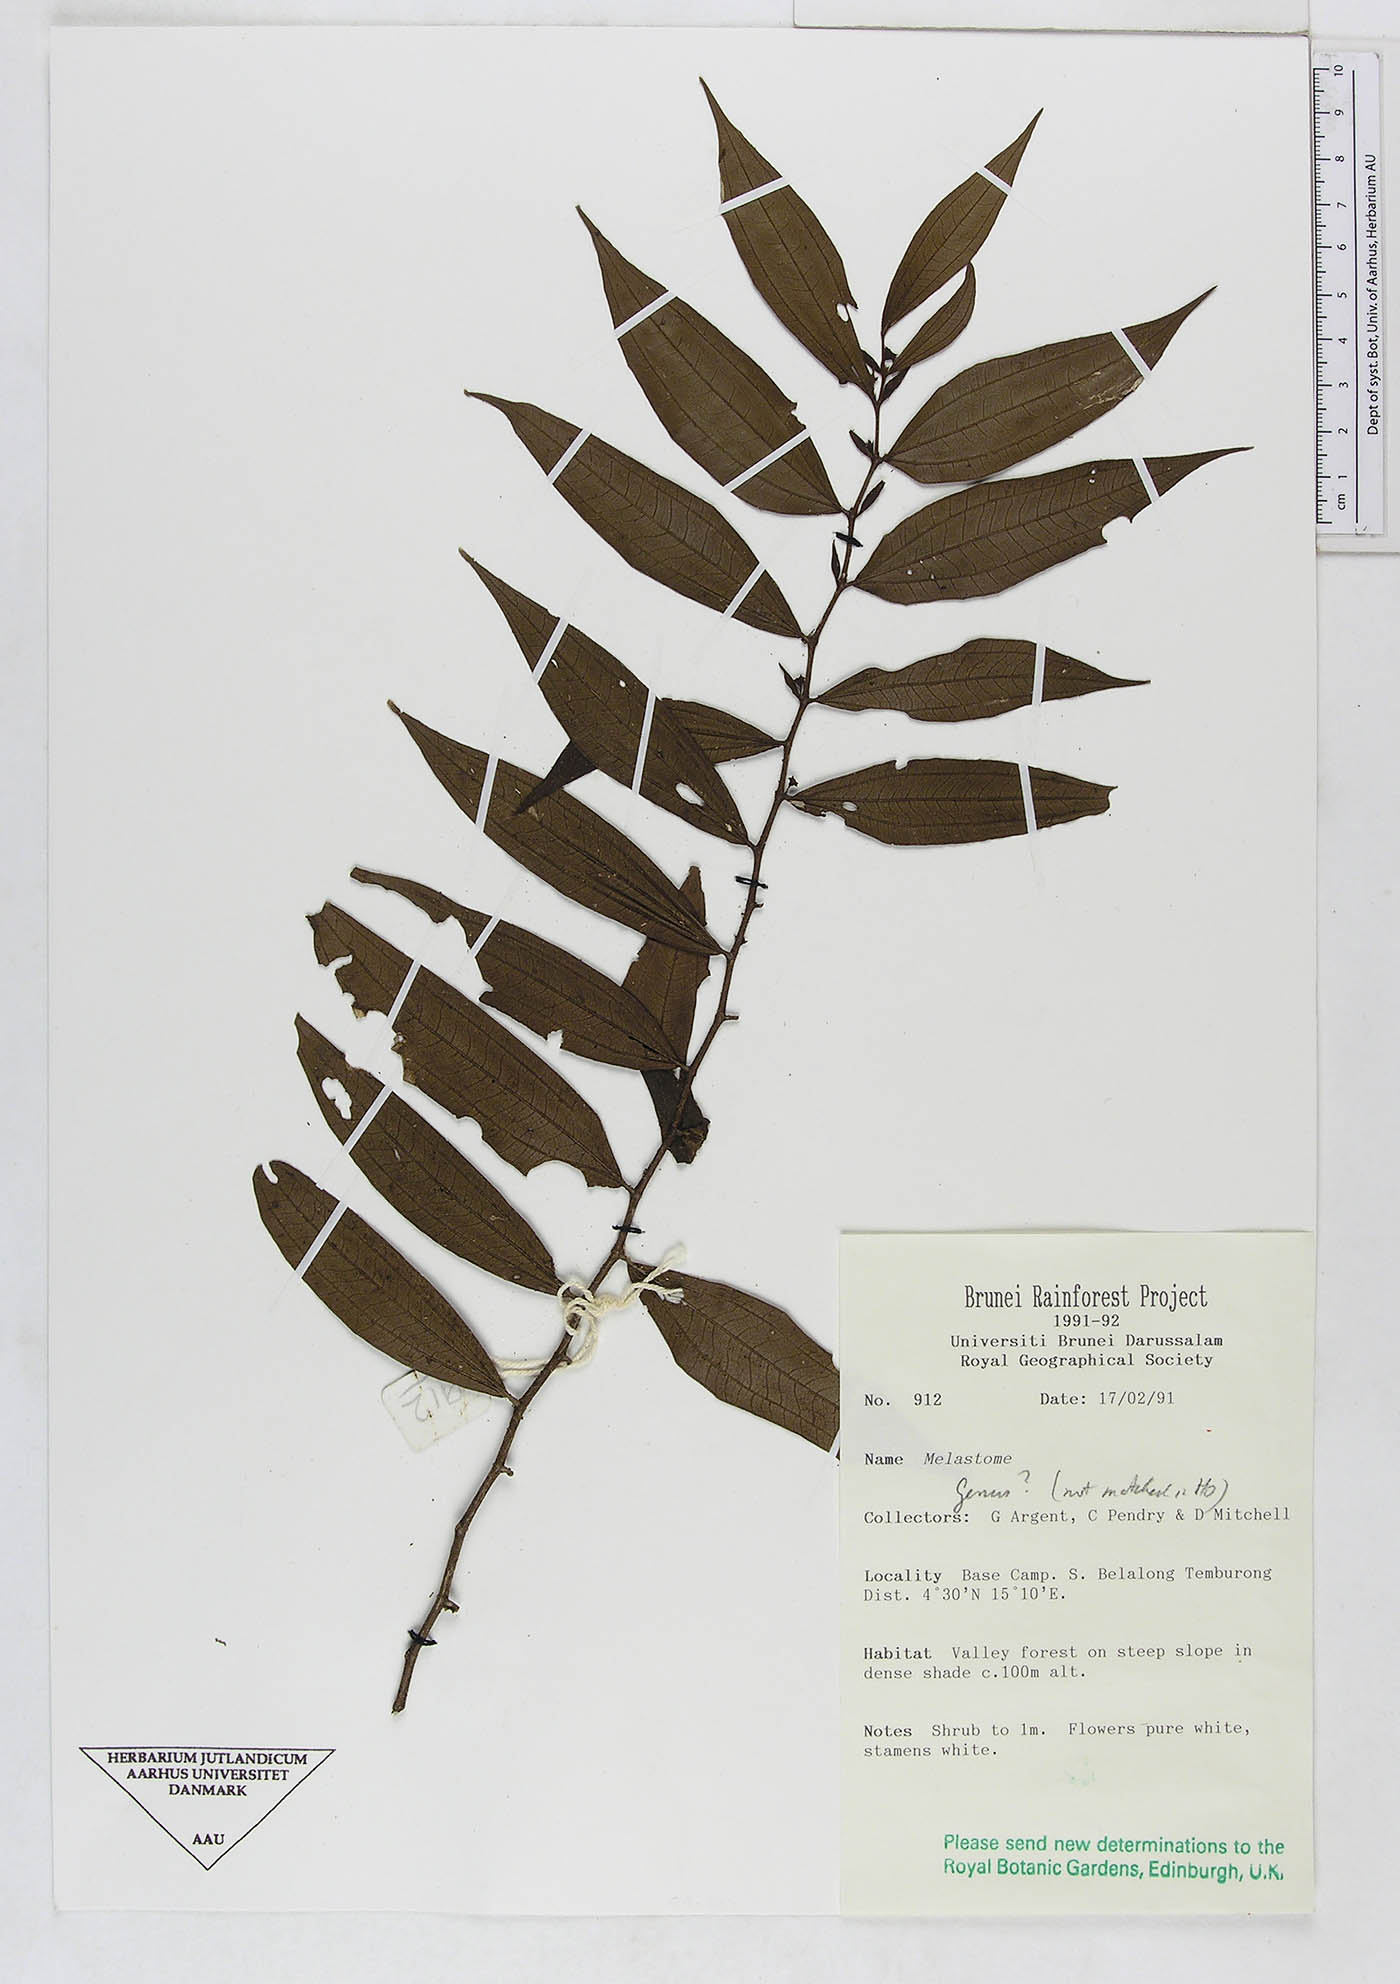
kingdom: Plantae
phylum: Tracheophyta
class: Magnoliopsida
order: Myrtales
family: Melastomataceae
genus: Melastoma
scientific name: Melastoma
